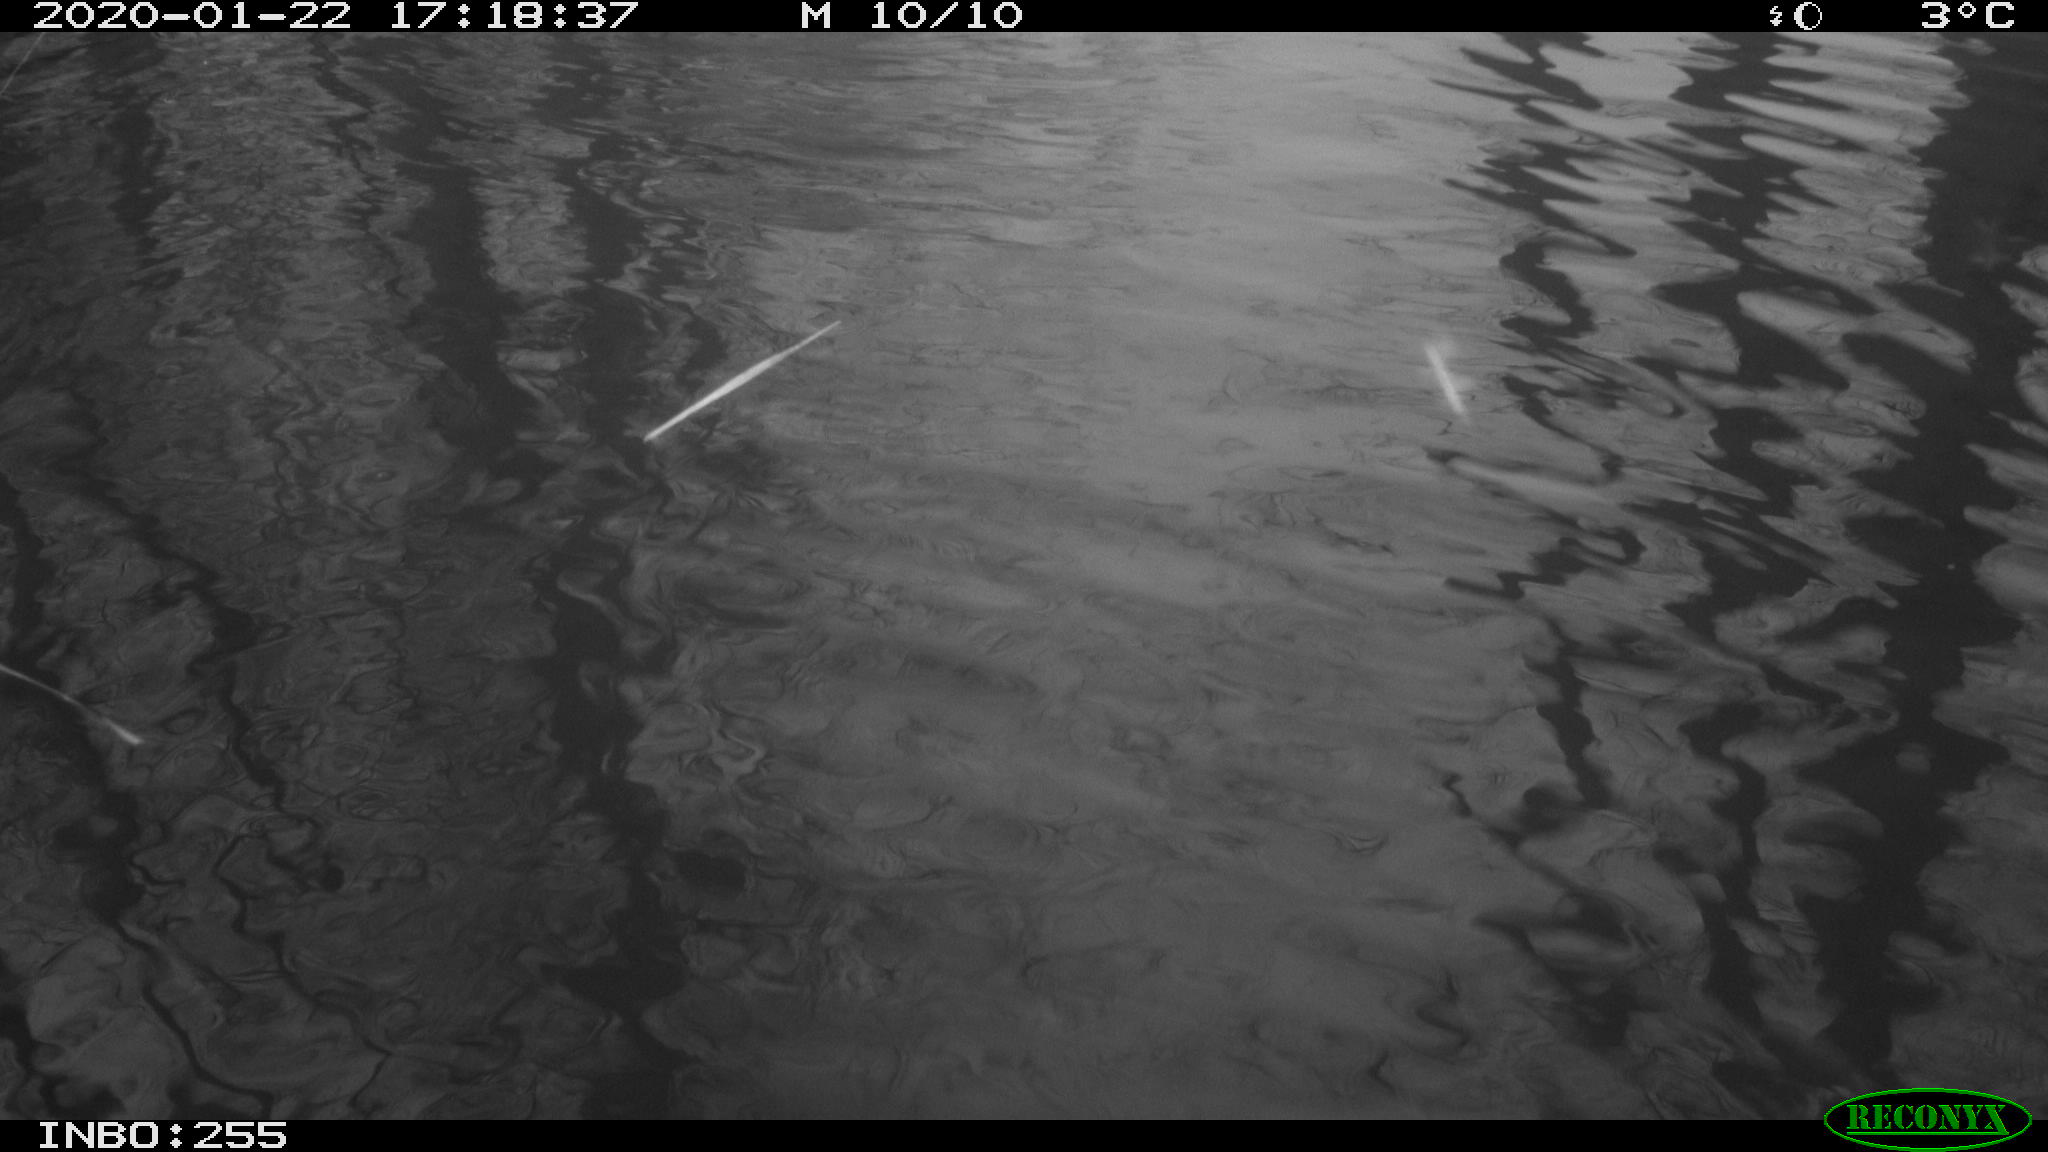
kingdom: Animalia
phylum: Chordata
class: Aves
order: Anseriformes
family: Anatidae
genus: Anas
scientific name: Anas platyrhynchos
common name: Mallard
